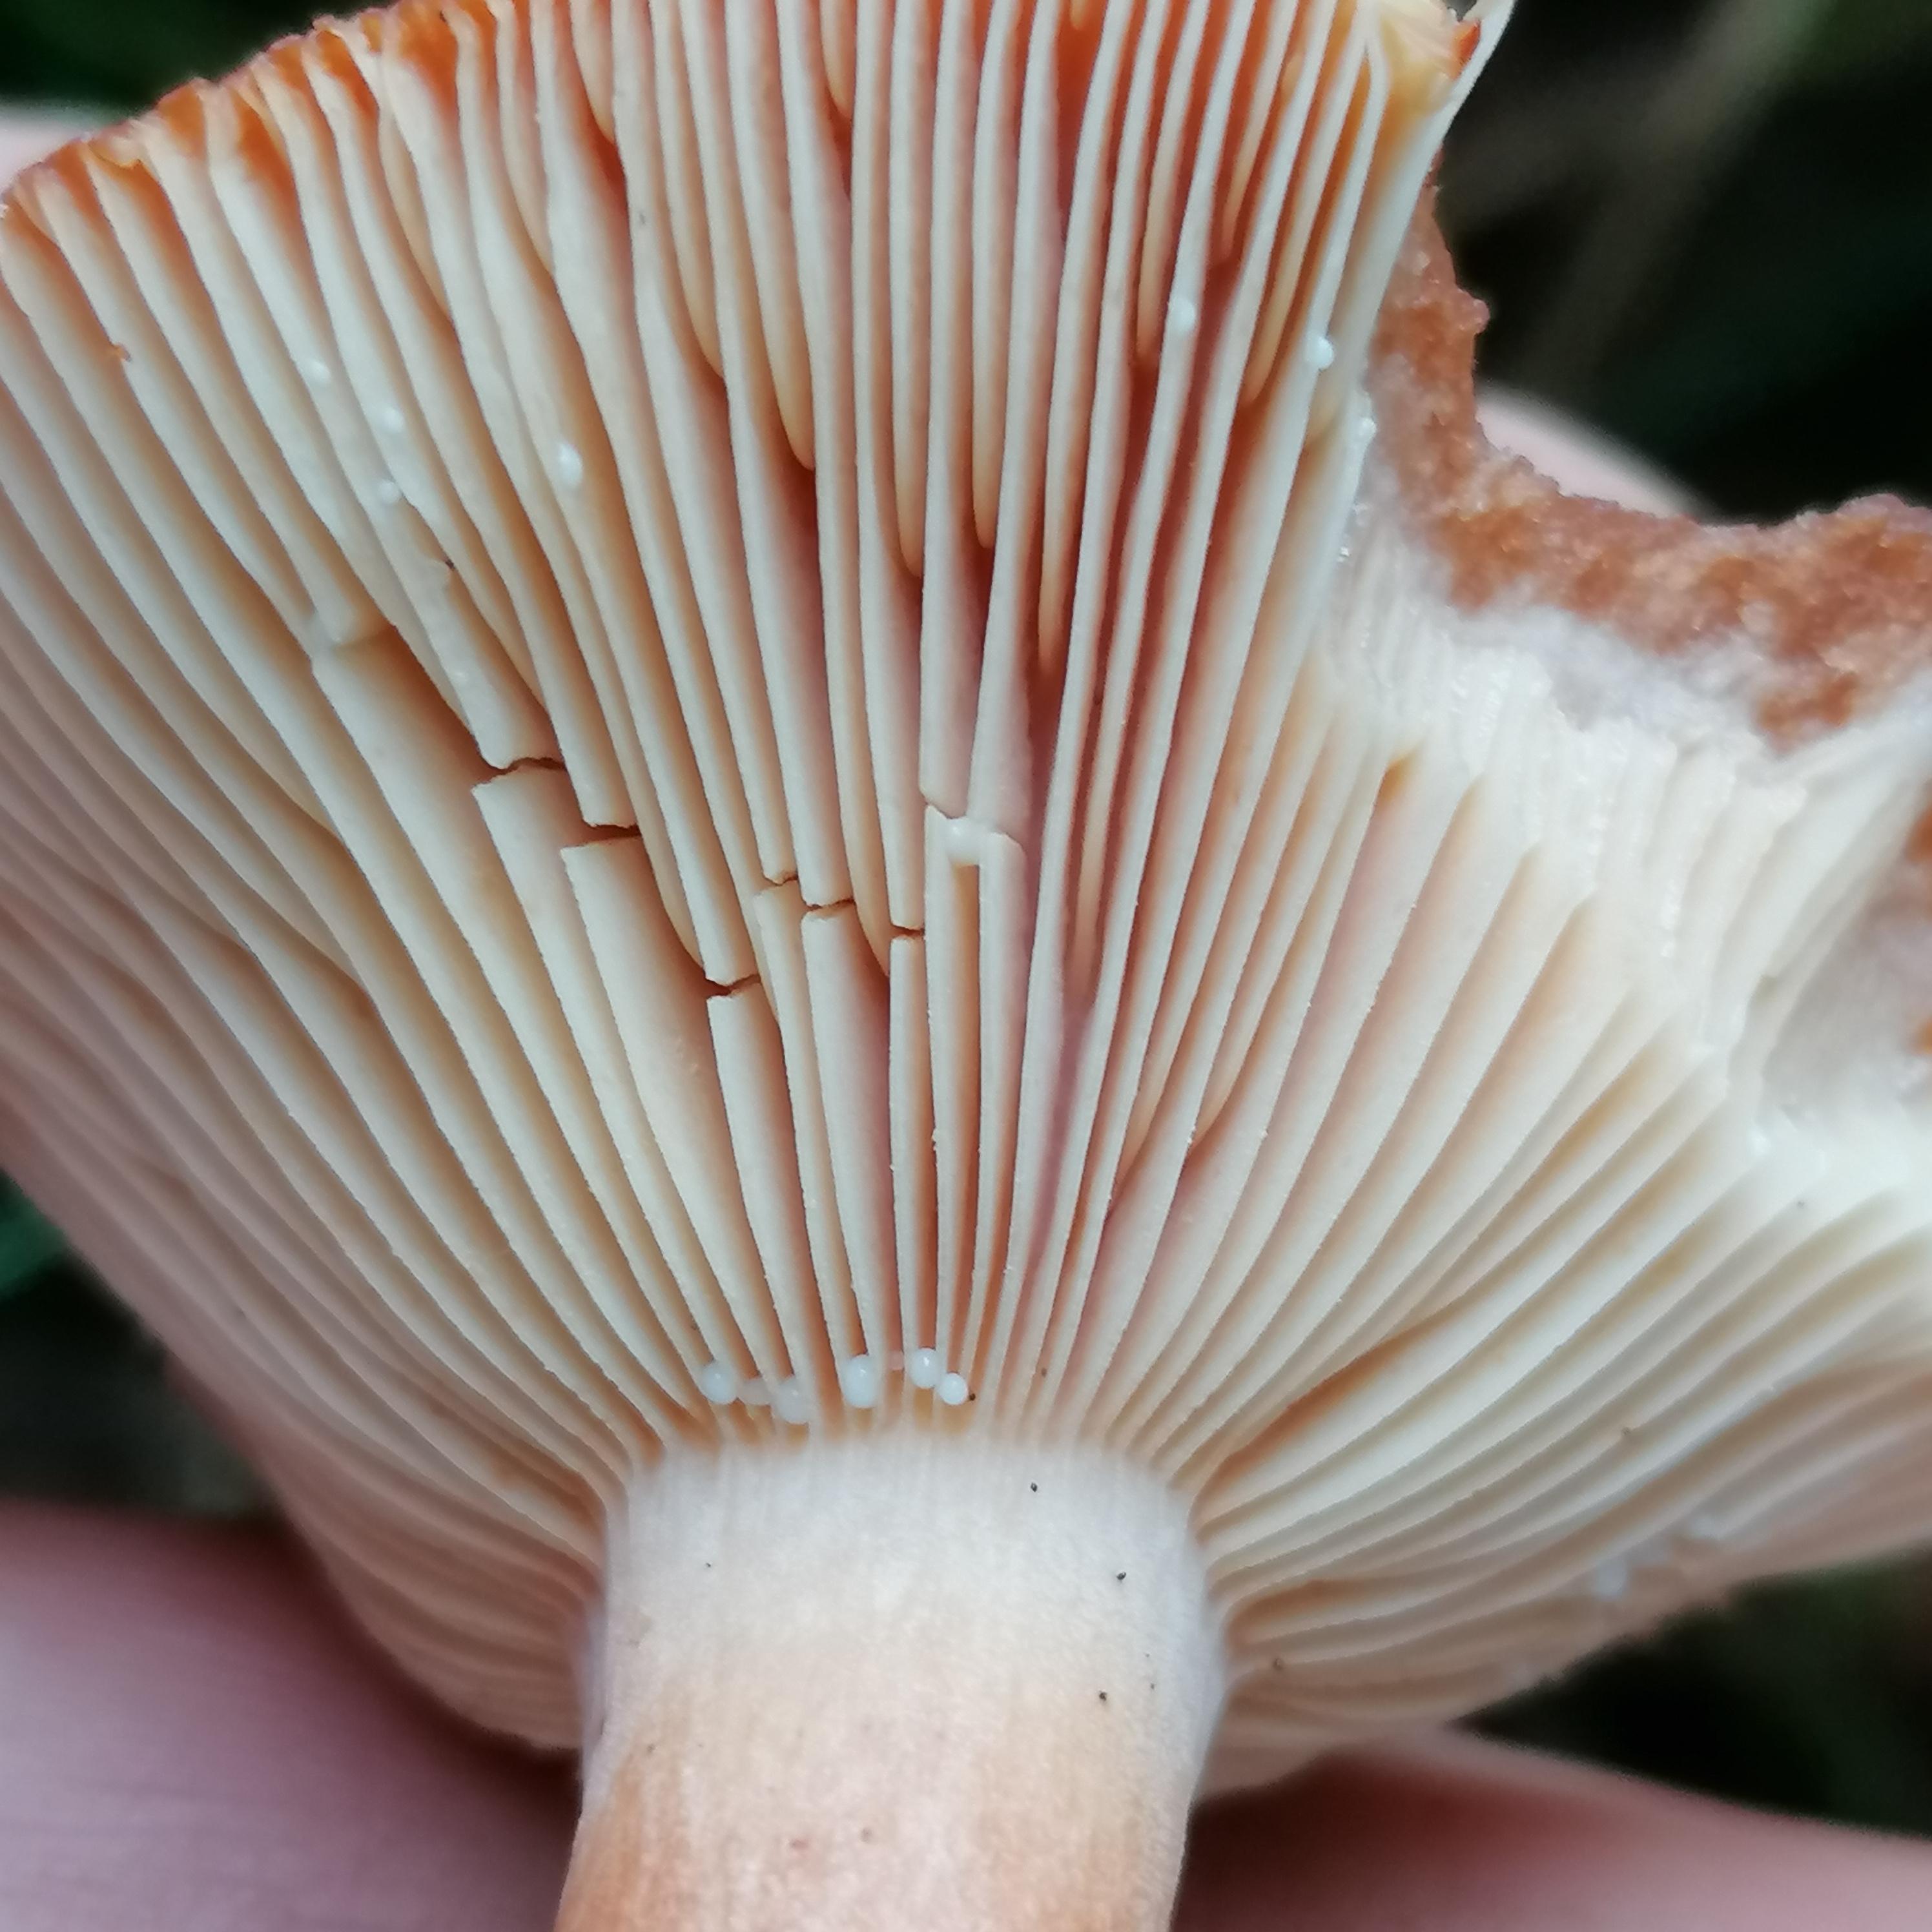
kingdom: Fungi
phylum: Basidiomycota
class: Agaricomycetes
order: Russulales
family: Russulaceae
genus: Lactarius
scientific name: Lactarius rufus
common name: rødbrun mælkehat
